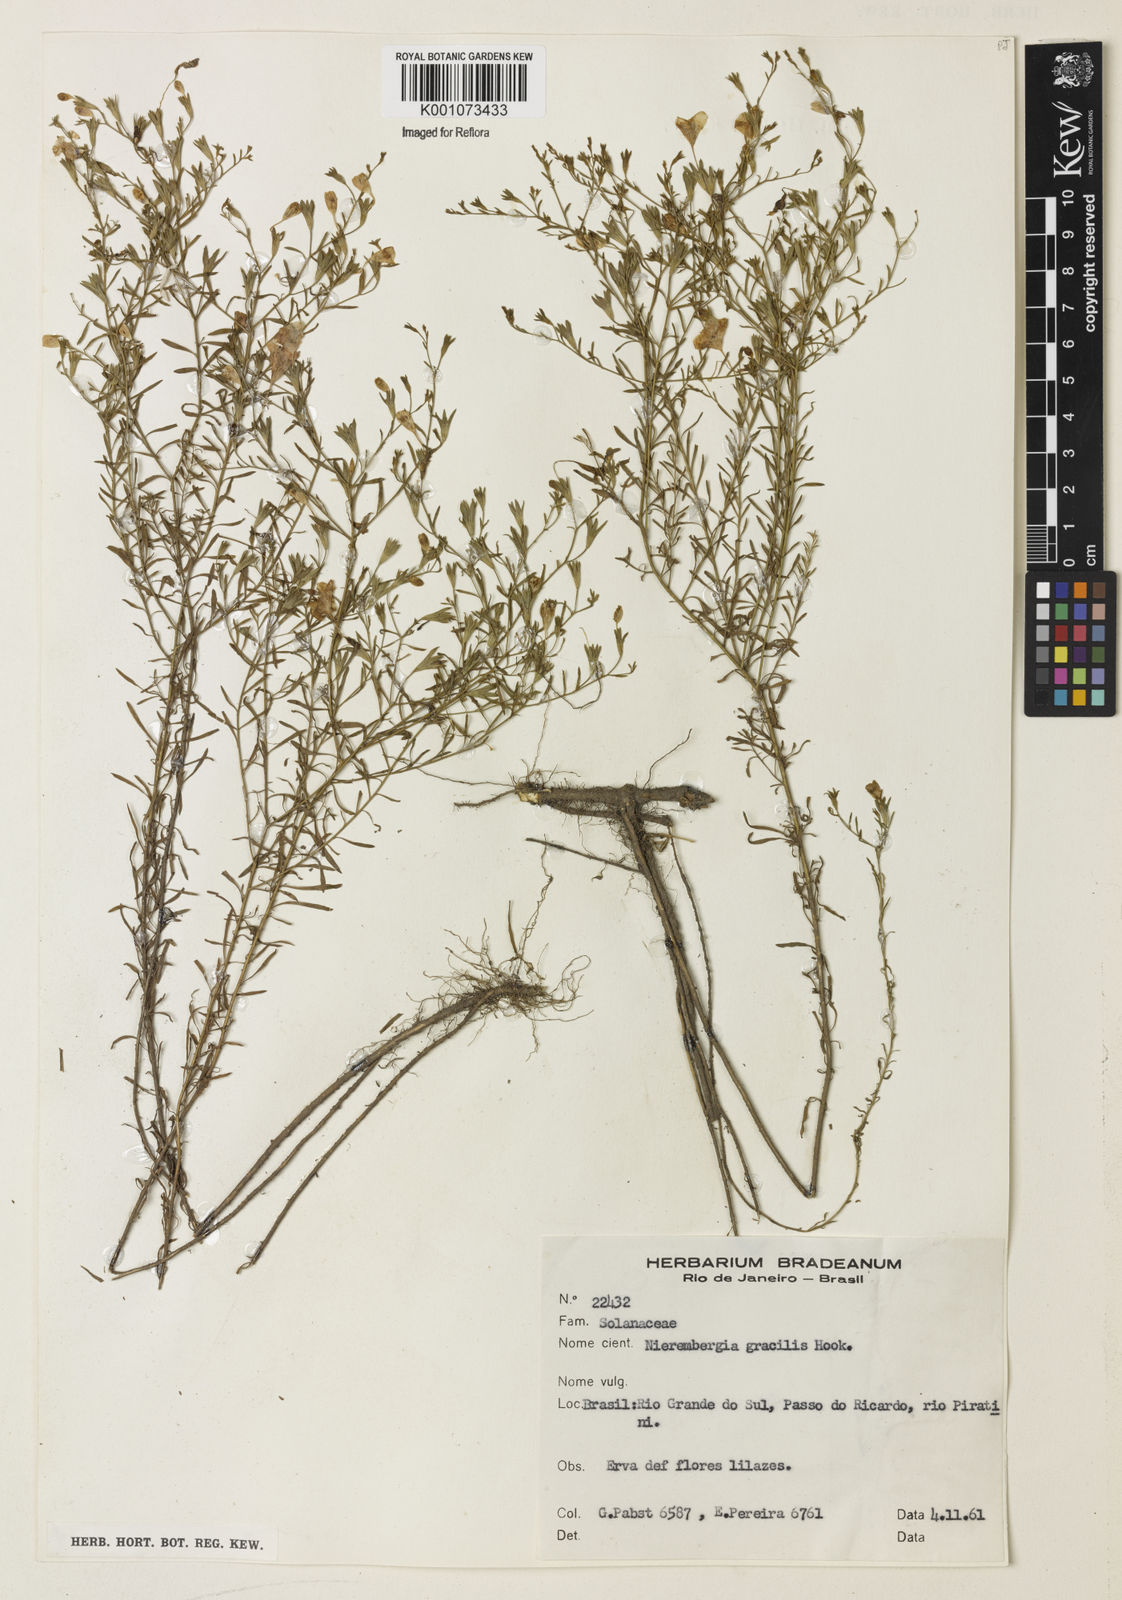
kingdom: Plantae
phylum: Tracheophyta
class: Magnoliopsida
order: Solanales
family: Solanaceae
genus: Nierembergia
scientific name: Nierembergia linariifolia
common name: Dwarf cupflower
